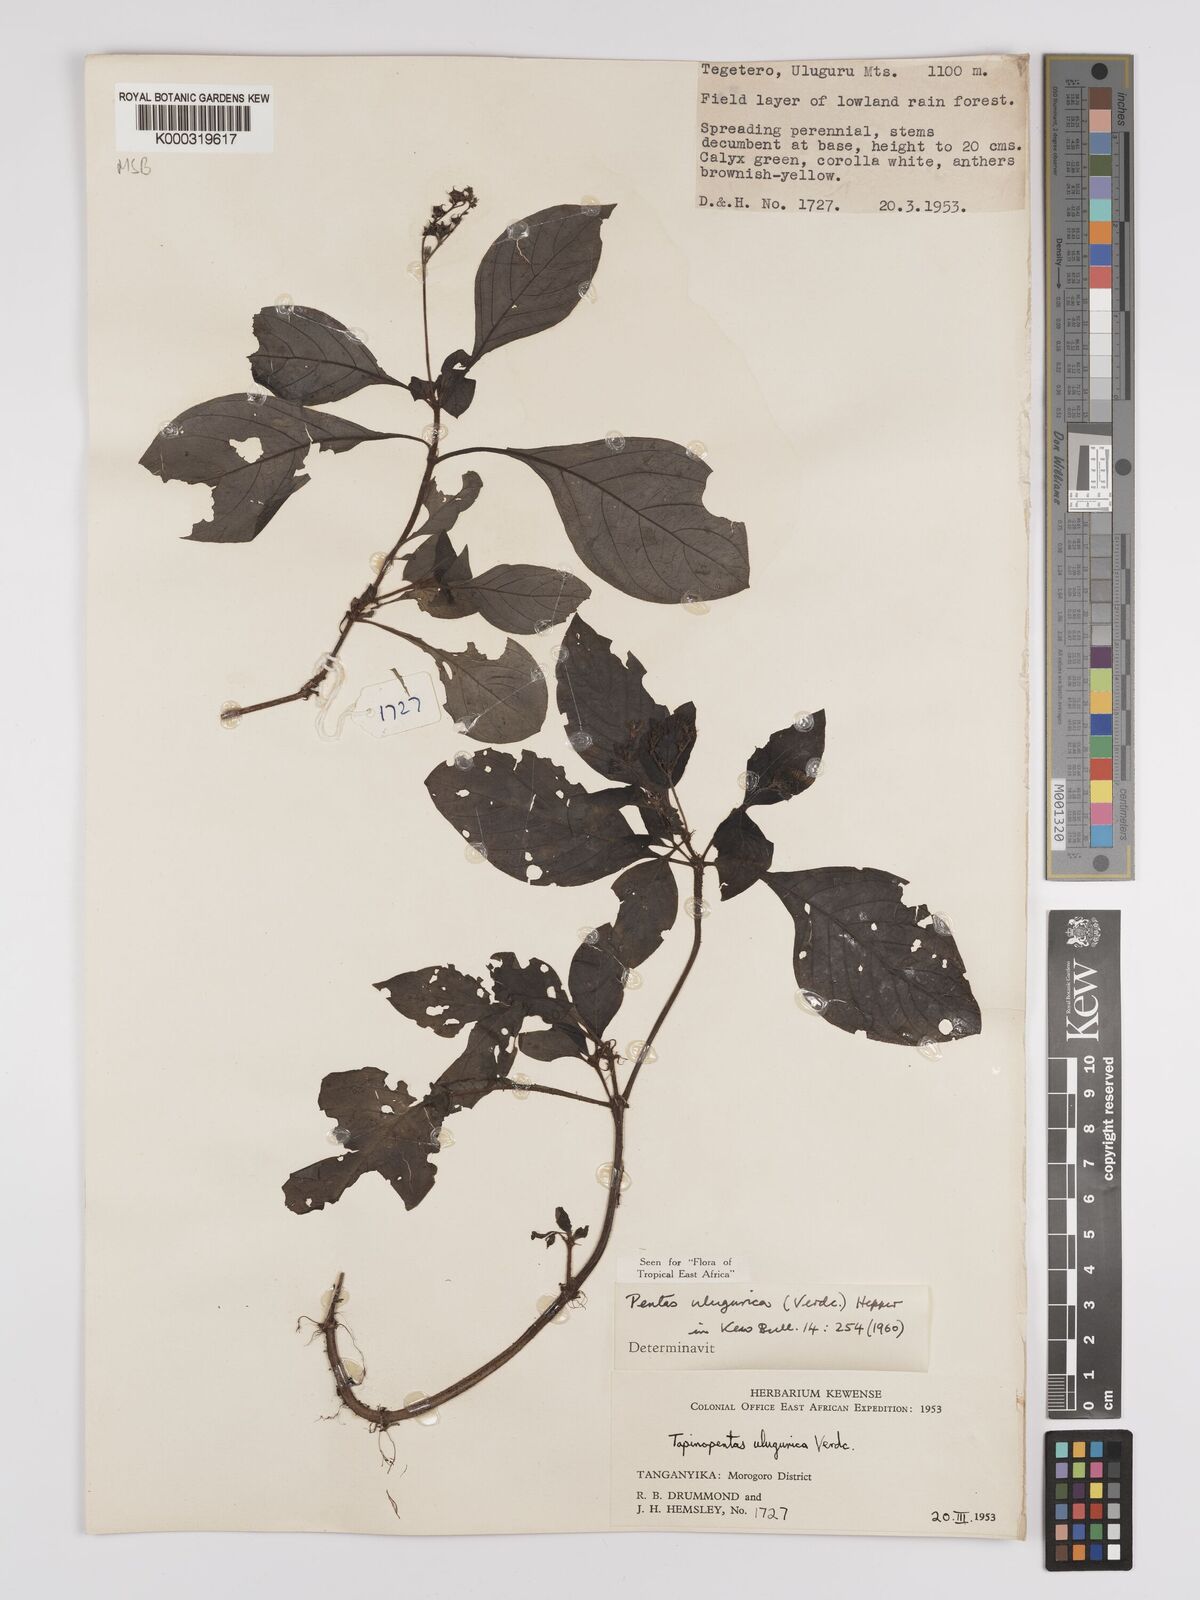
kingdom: Plantae
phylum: Tracheophyta
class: Magnoliopsida
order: Gentianales
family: Rubiaceae
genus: Phyllopentas
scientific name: Phyllopentas ulugurica
